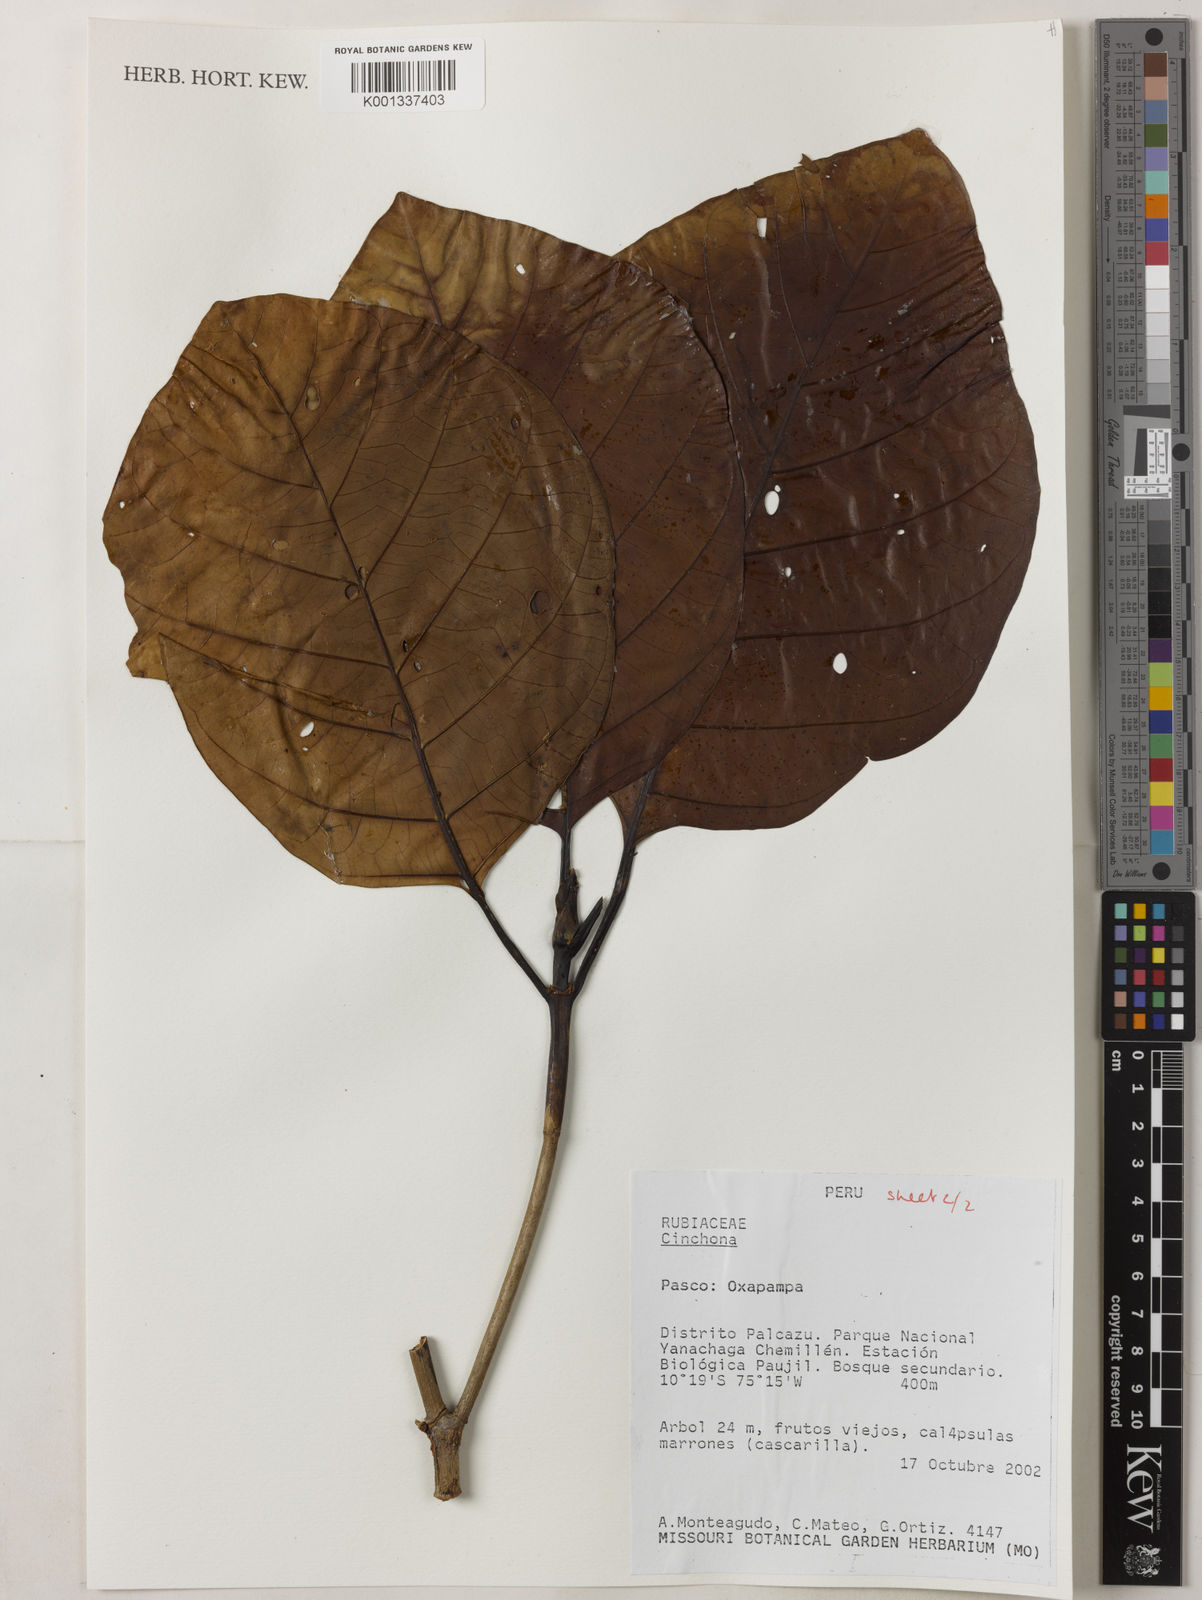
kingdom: Plantae
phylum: Tracheophyta
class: Magnoliopsida
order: Gentianales
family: Rubiaceae
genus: Cinchona
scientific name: Cinchona
